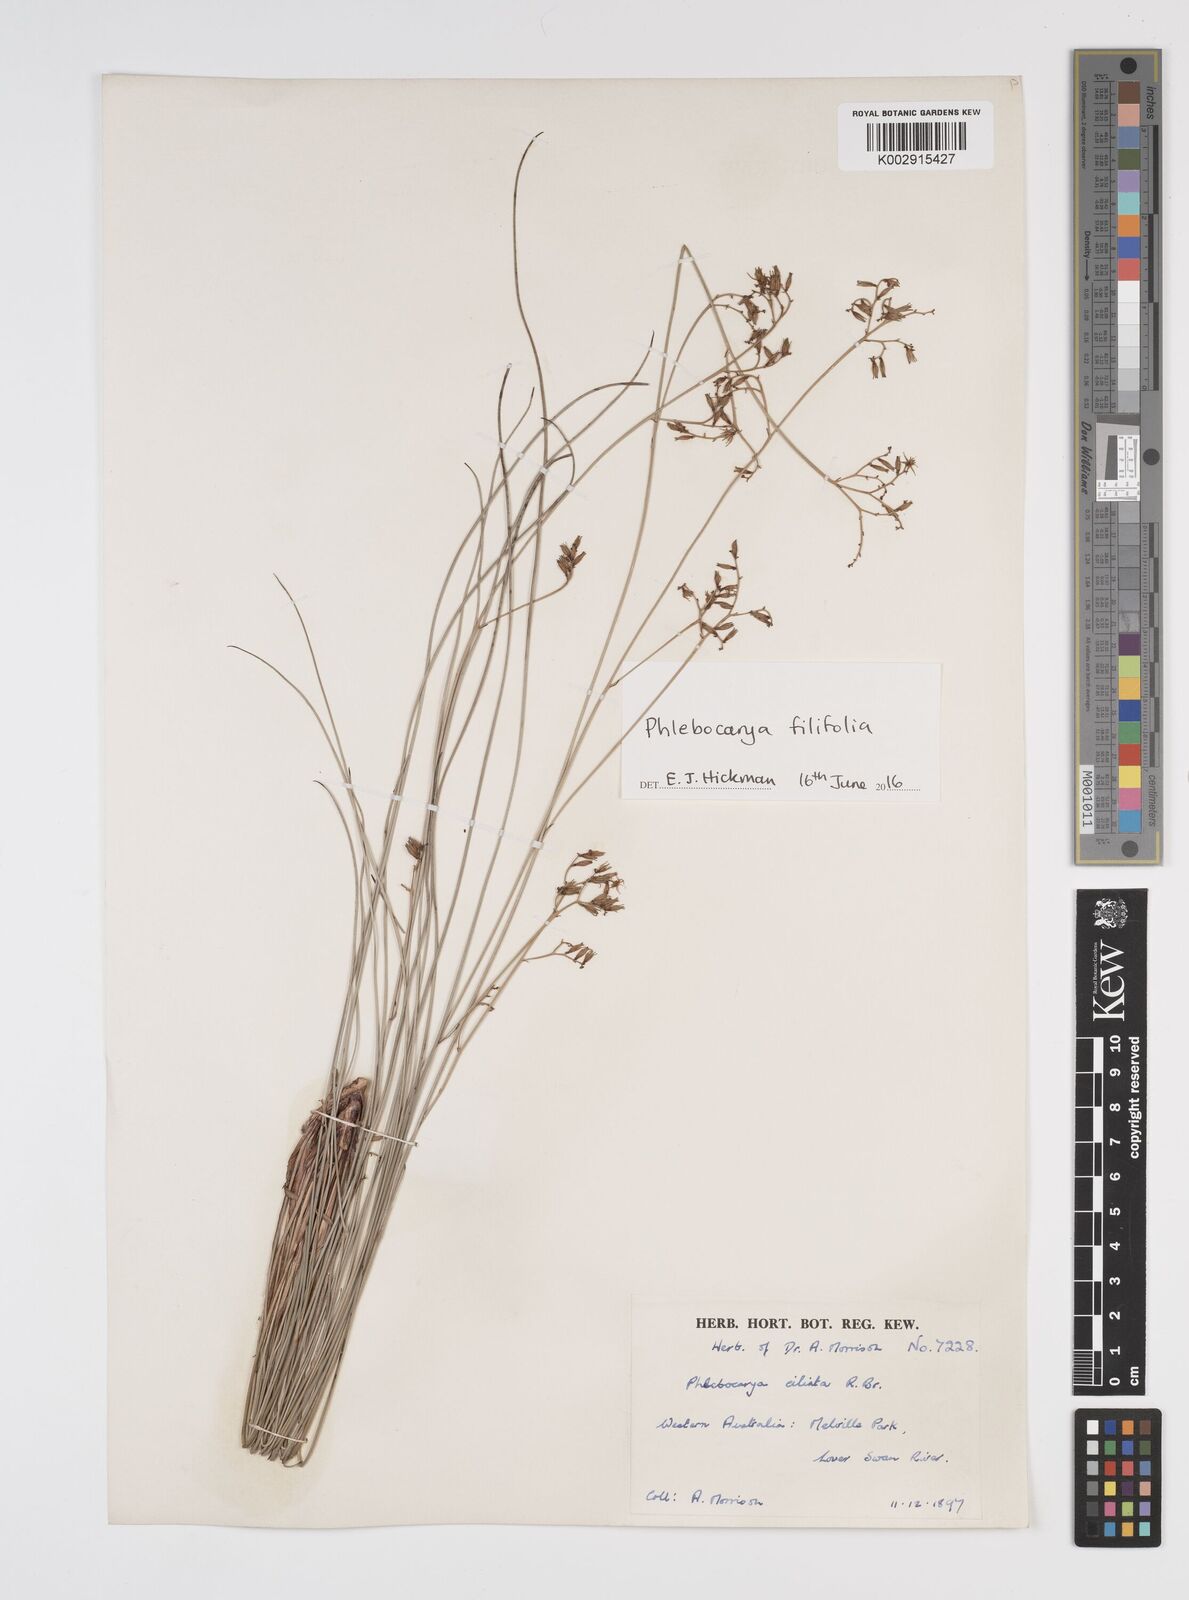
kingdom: Plantae
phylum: Tracheophyta
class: Liliopsida
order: Commelinales
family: Haemodoraceae
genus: Phlebocarya
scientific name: Phlebocarya ciliata
